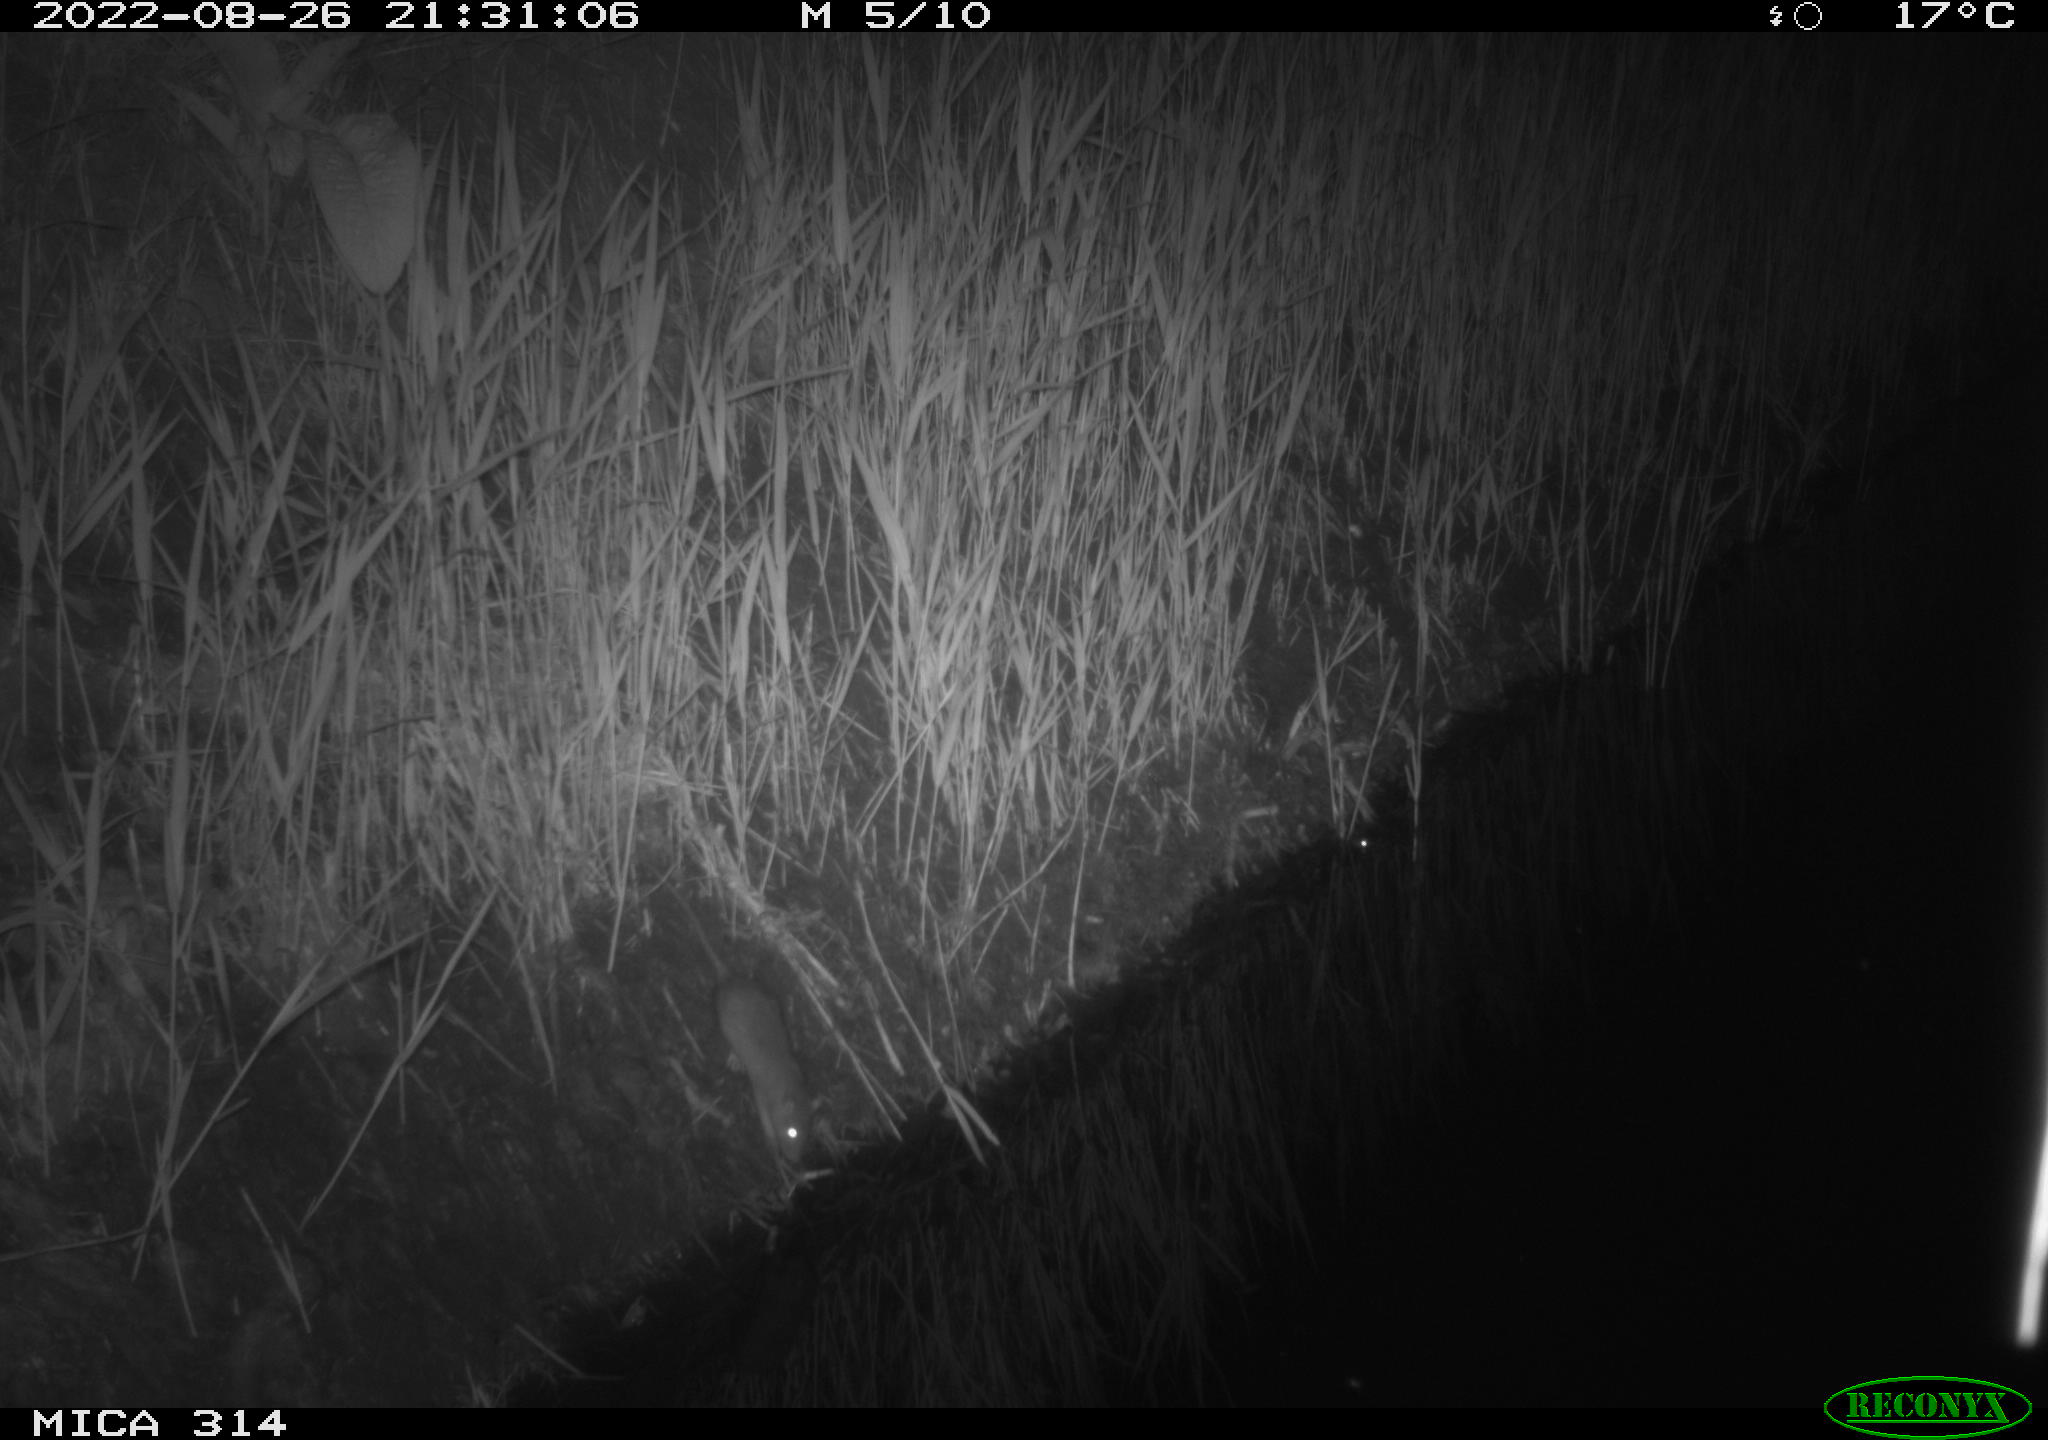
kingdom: Animalia
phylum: Chordata
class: Mammalia
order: Rodentia
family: Muridae
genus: Rattus
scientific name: Rattus norvegicus
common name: Brown rat
